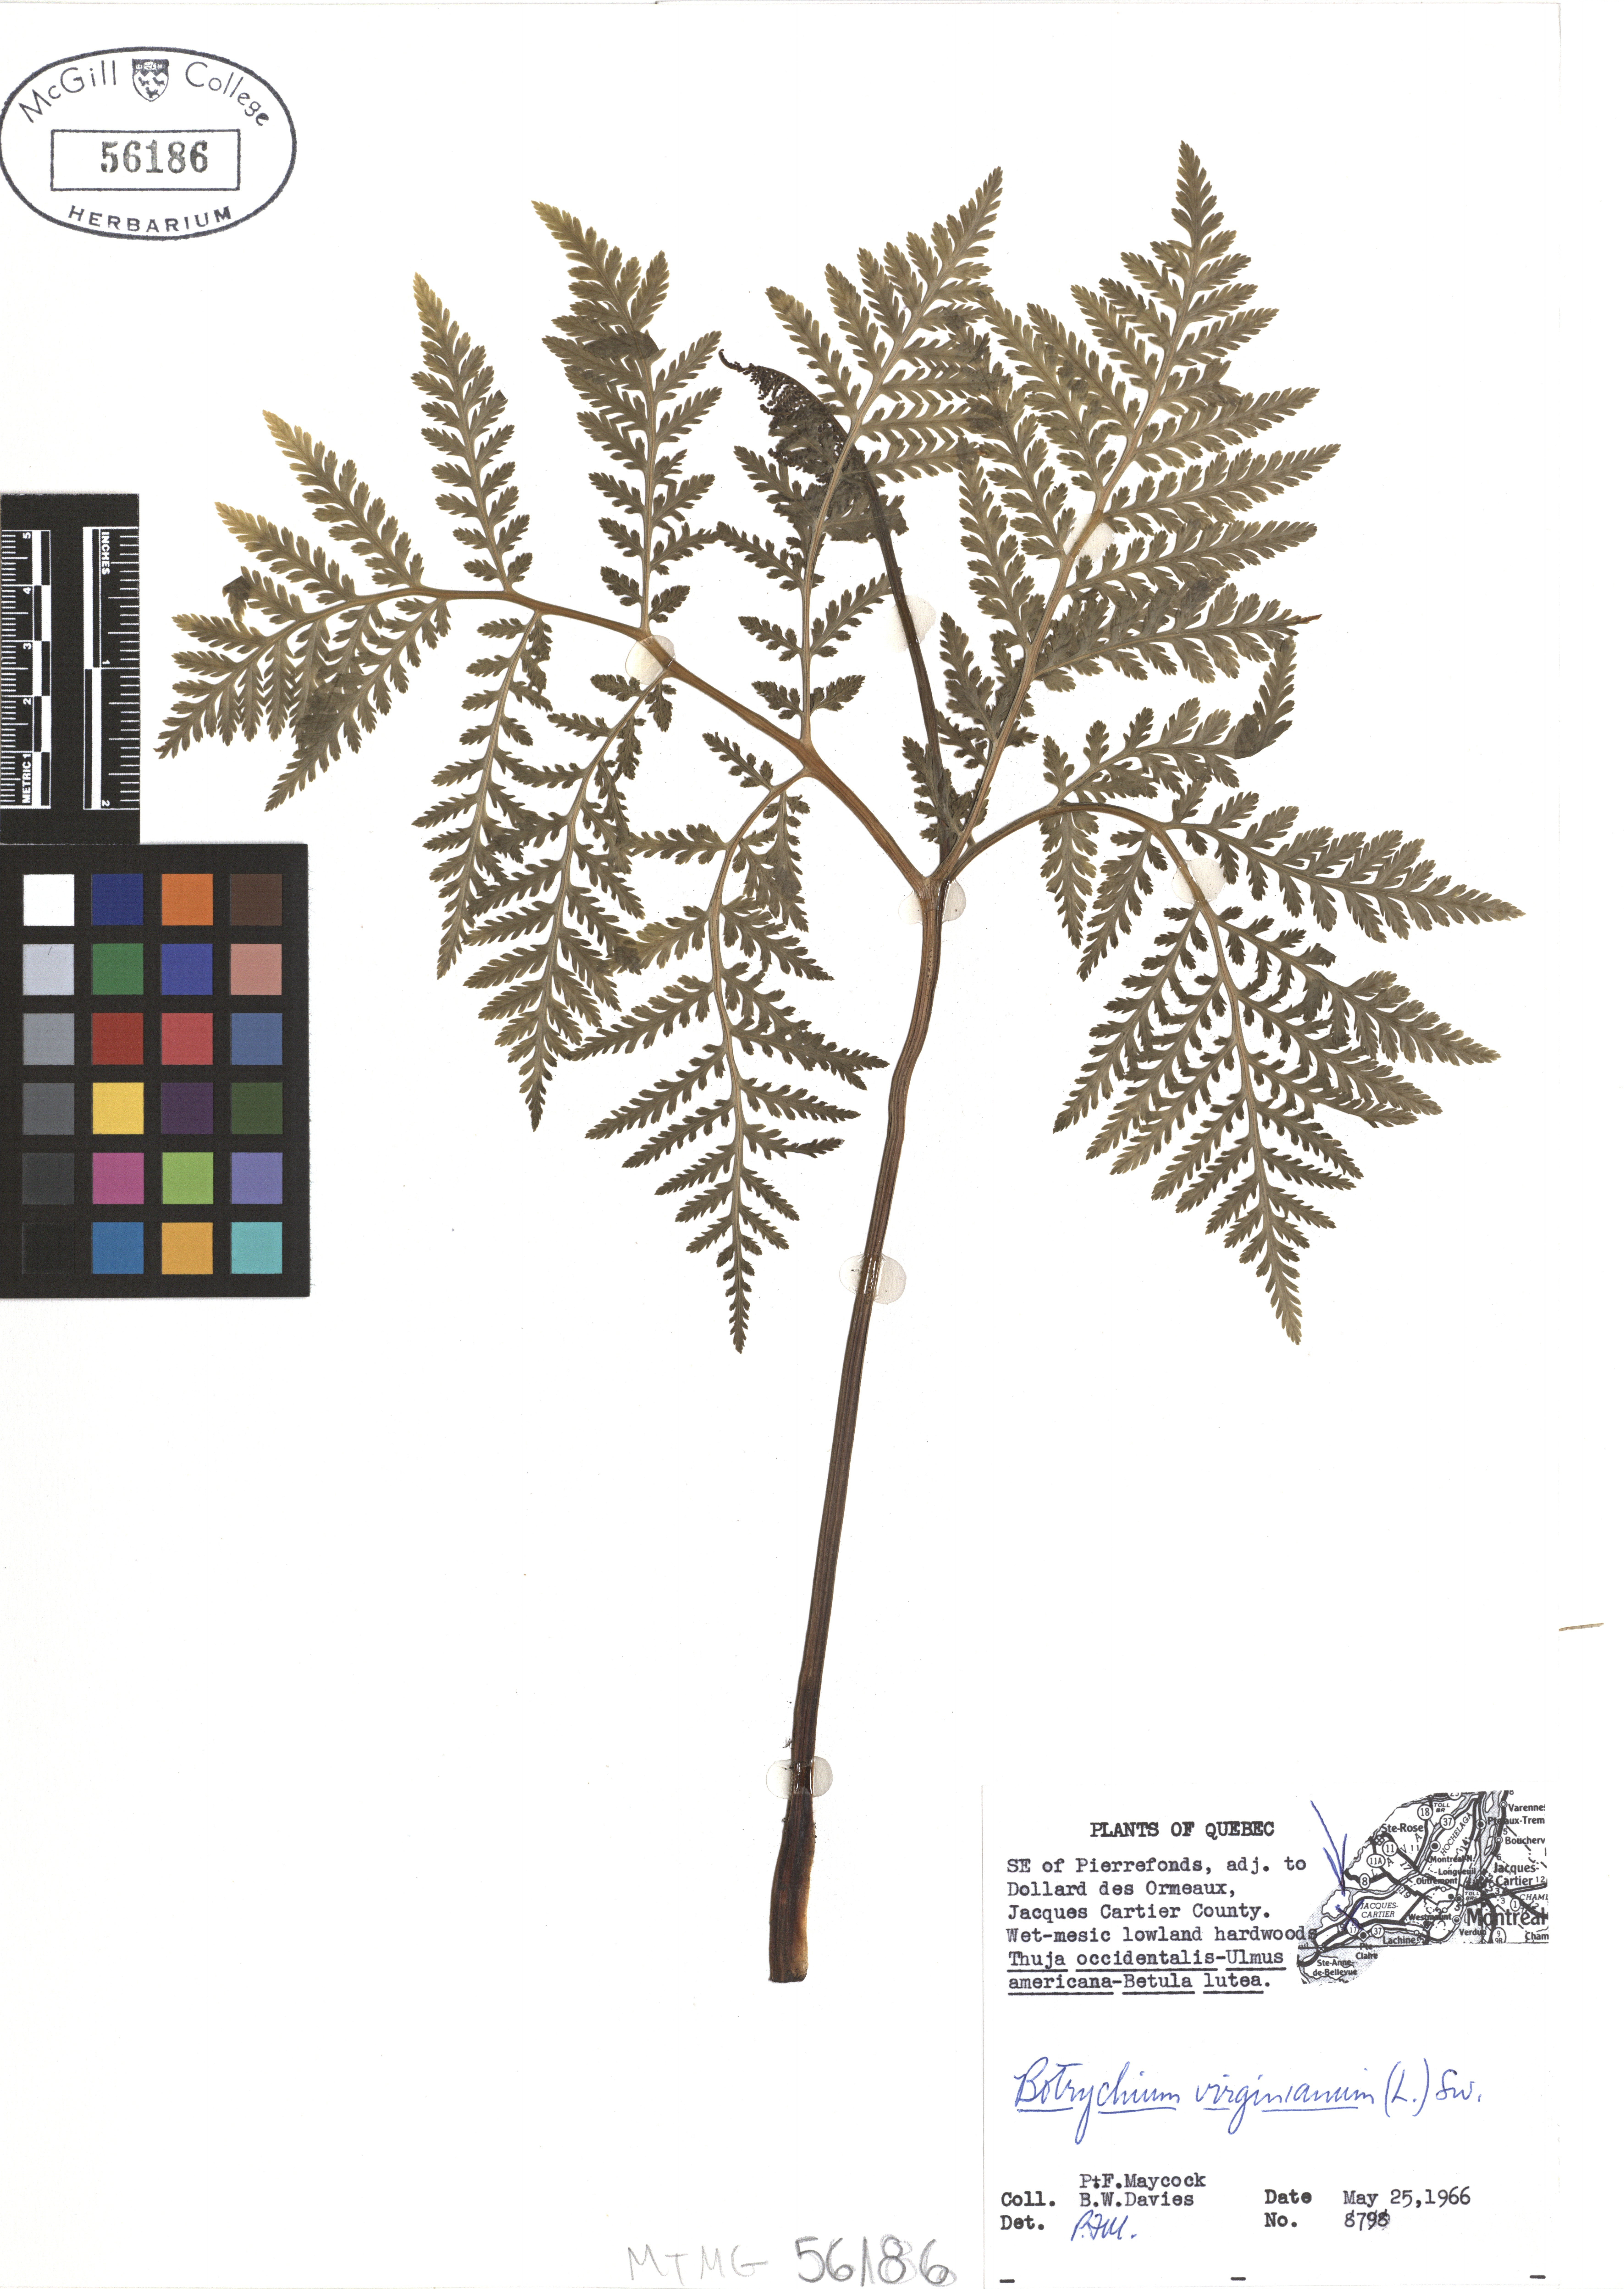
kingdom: Plantae
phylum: Tracheophyta
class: Polypodiopsida
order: Ophioglossales
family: Ophioglossaceae
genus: Botrypus
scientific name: Botrypus virginianus
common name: Common grapefern
